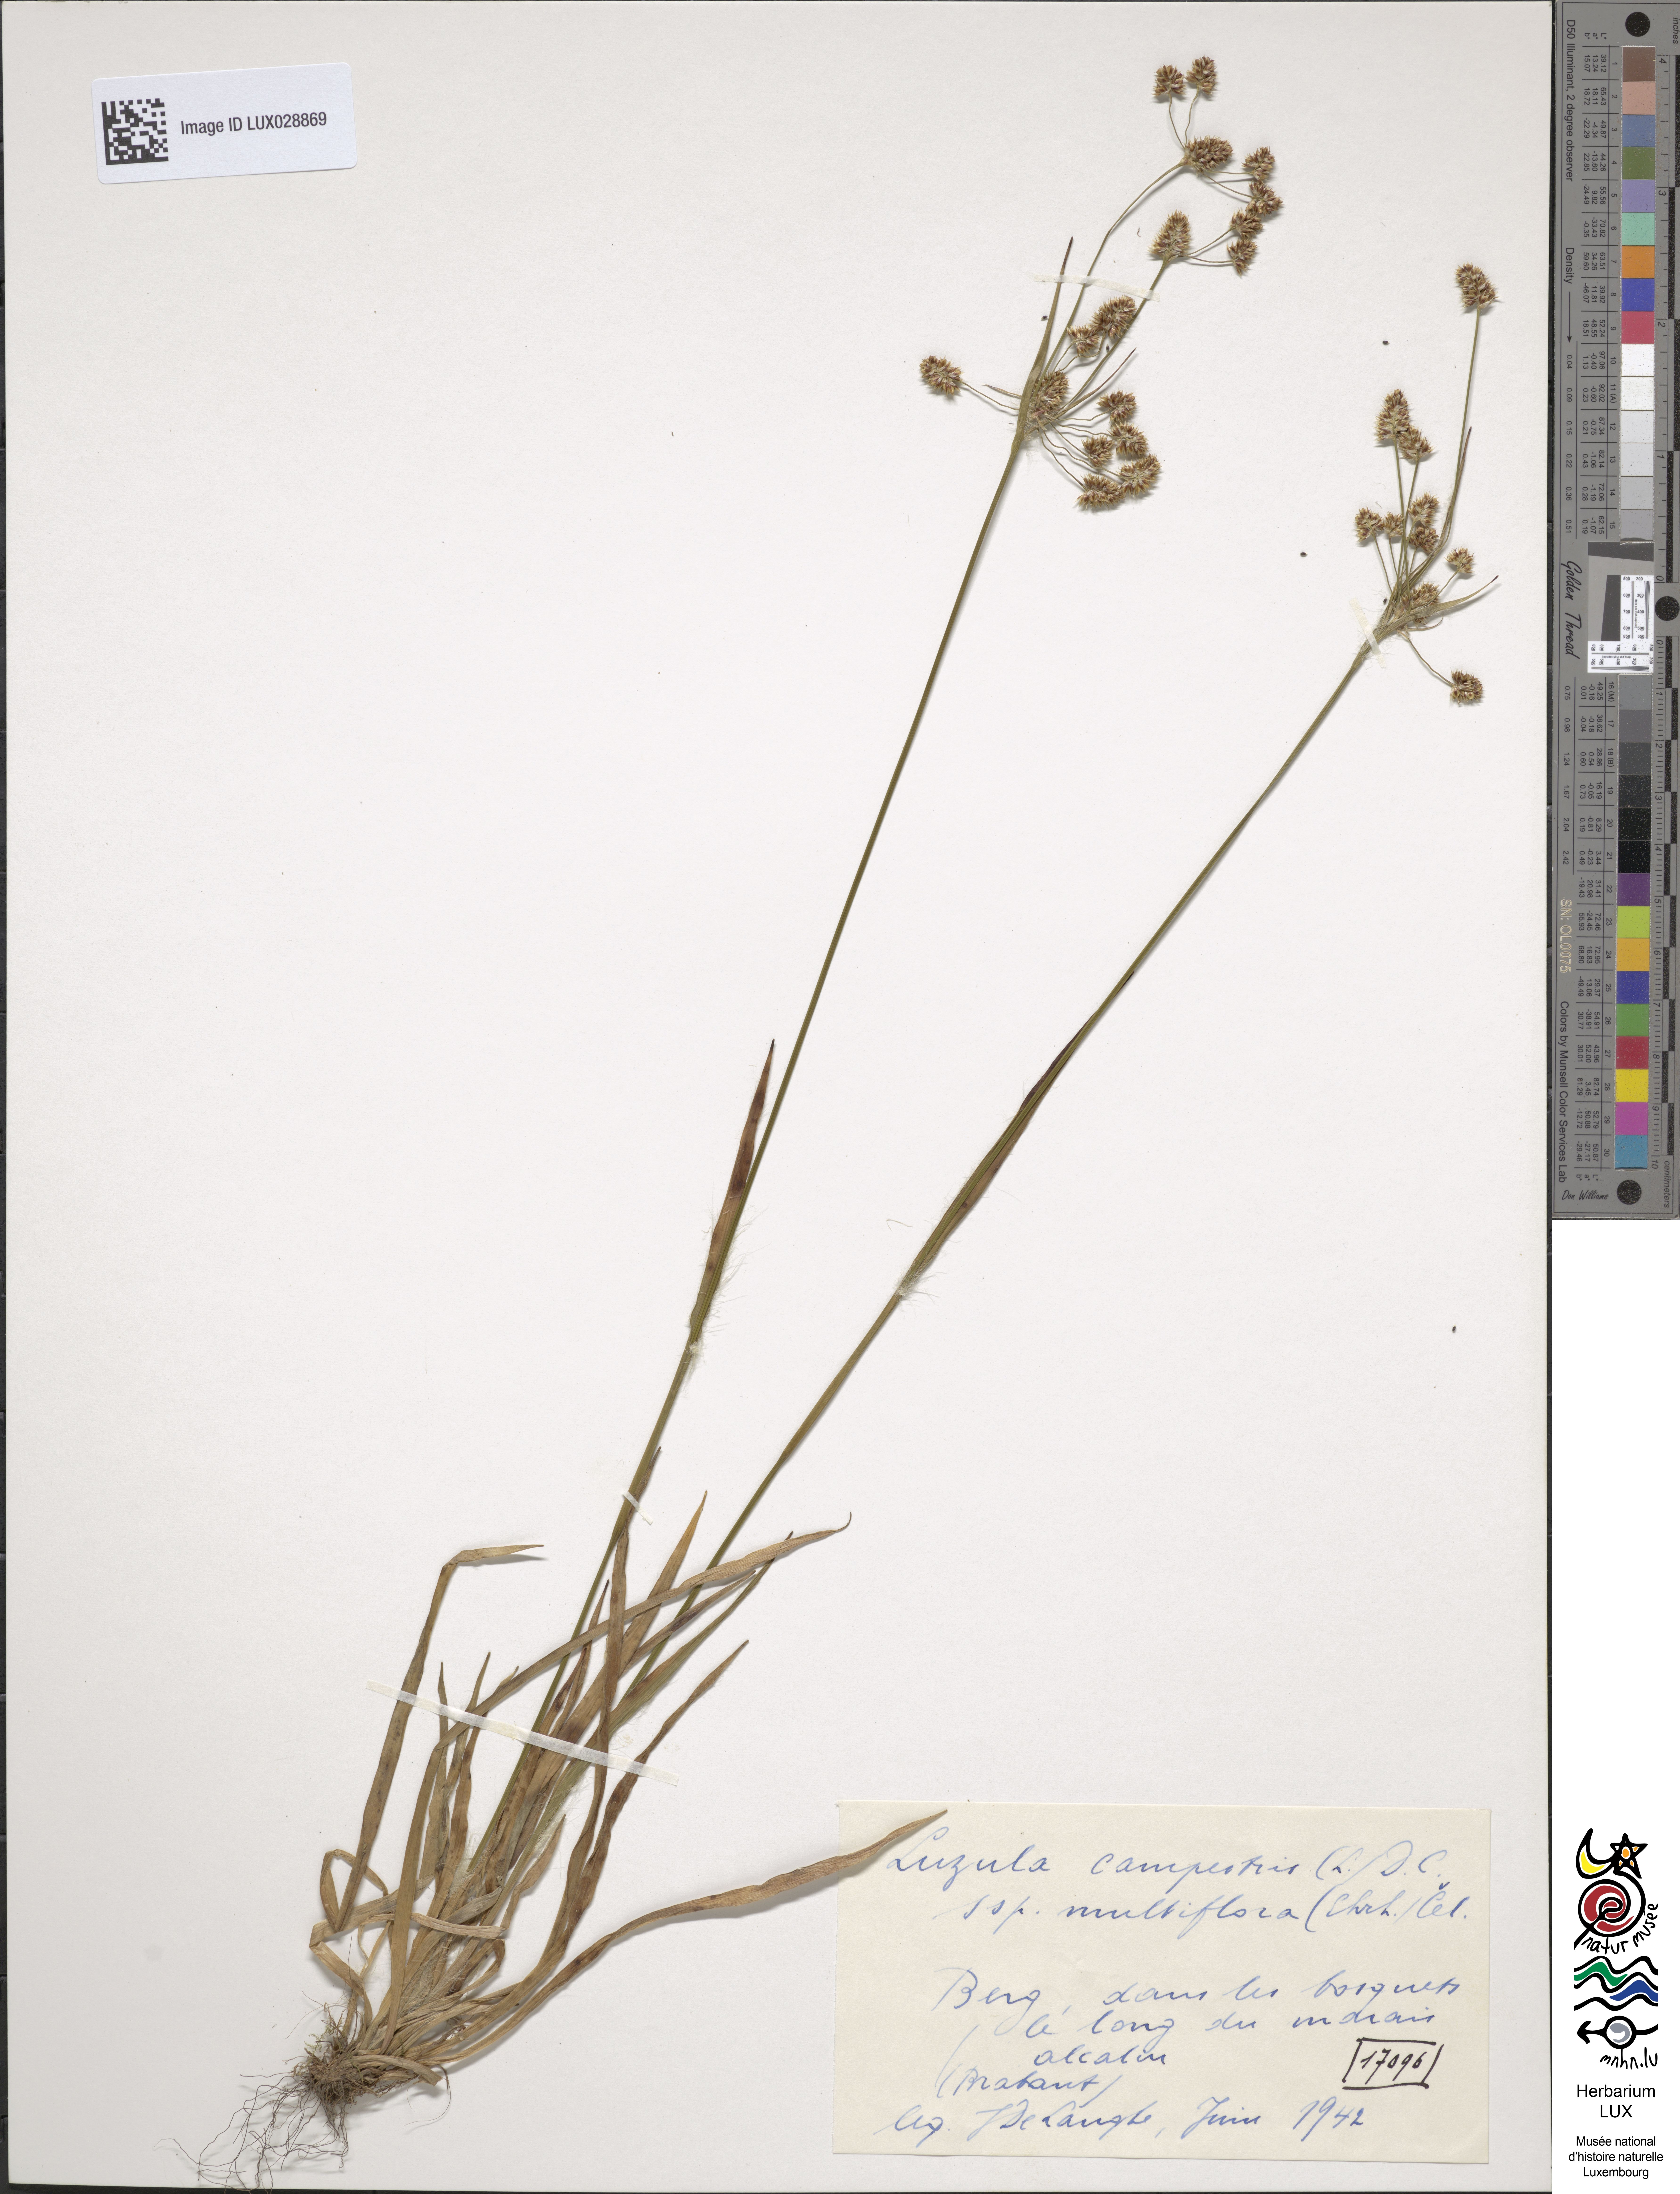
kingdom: Plantae
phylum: Tracheophyta
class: Liliopsida
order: Poales
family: Juncaceae
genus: Luzula
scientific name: Luzula multiflora
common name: Heath wood-rush
